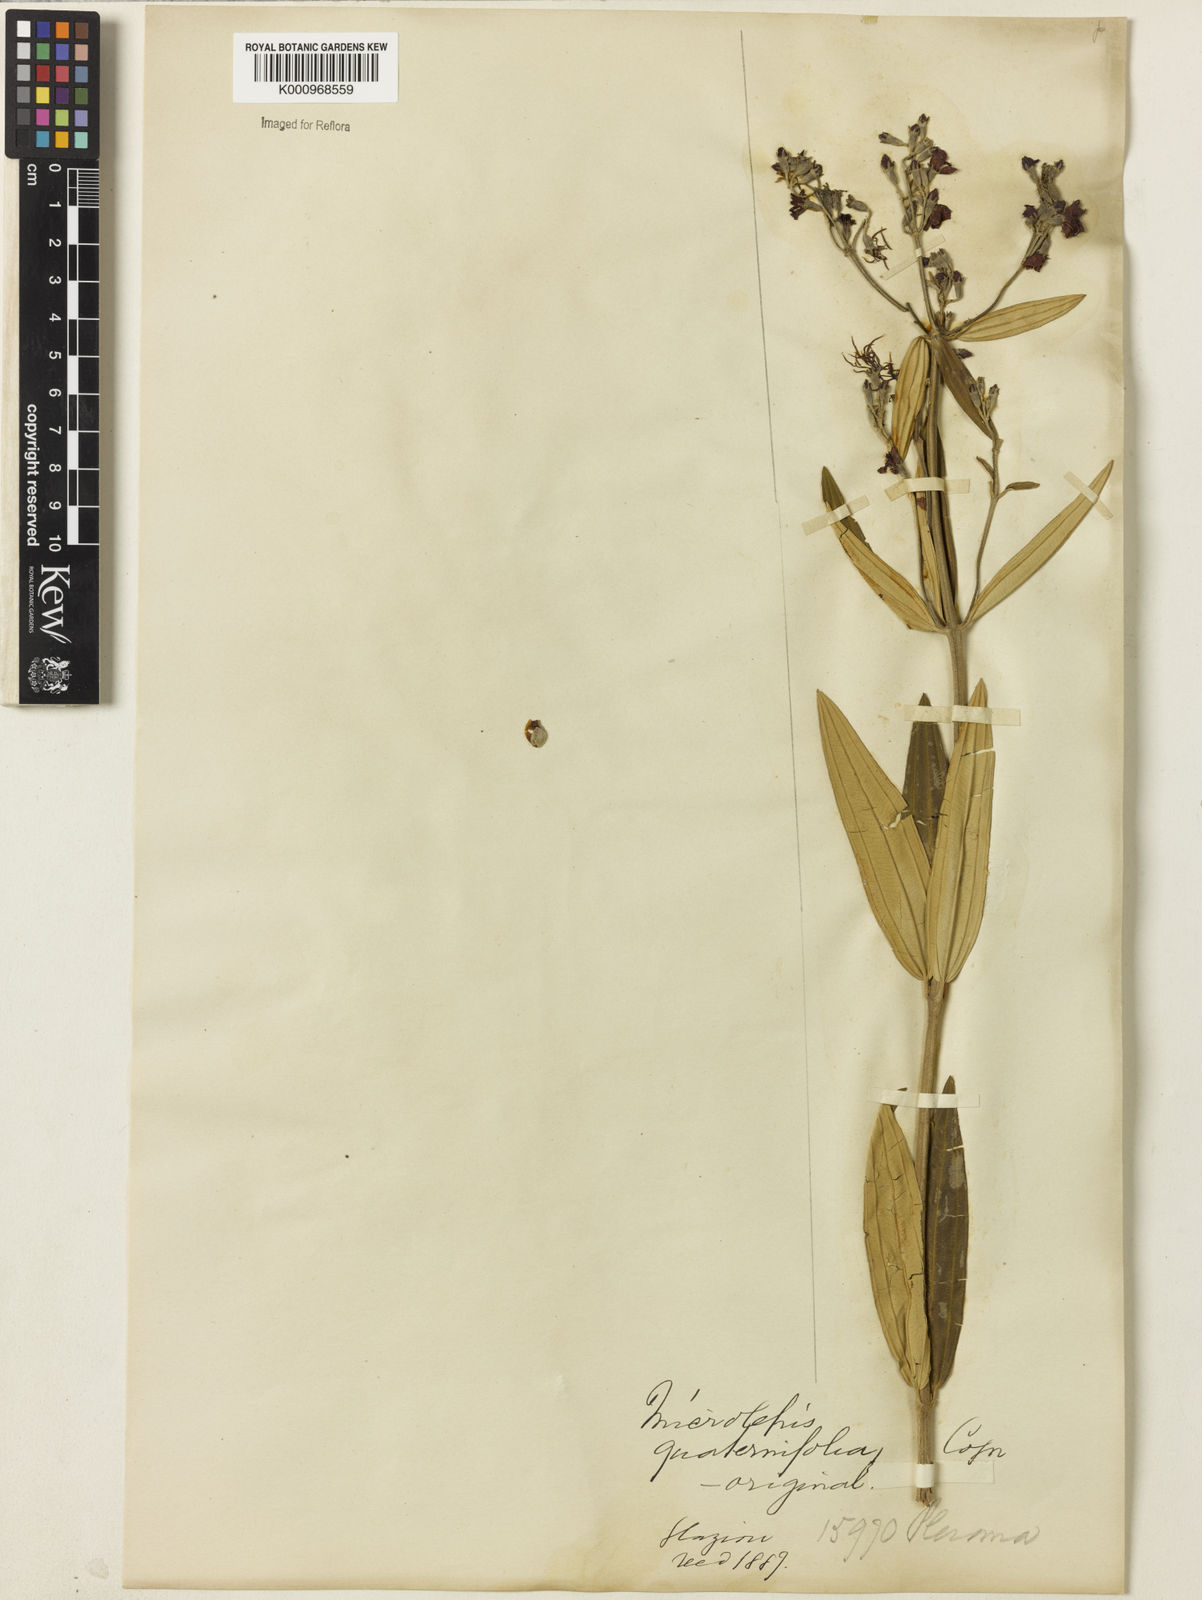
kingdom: Plantae
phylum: Tracheophyta
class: Magnoliopsida
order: Myrtales
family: Melastomataceae
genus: Pleroma
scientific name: Pleroma
